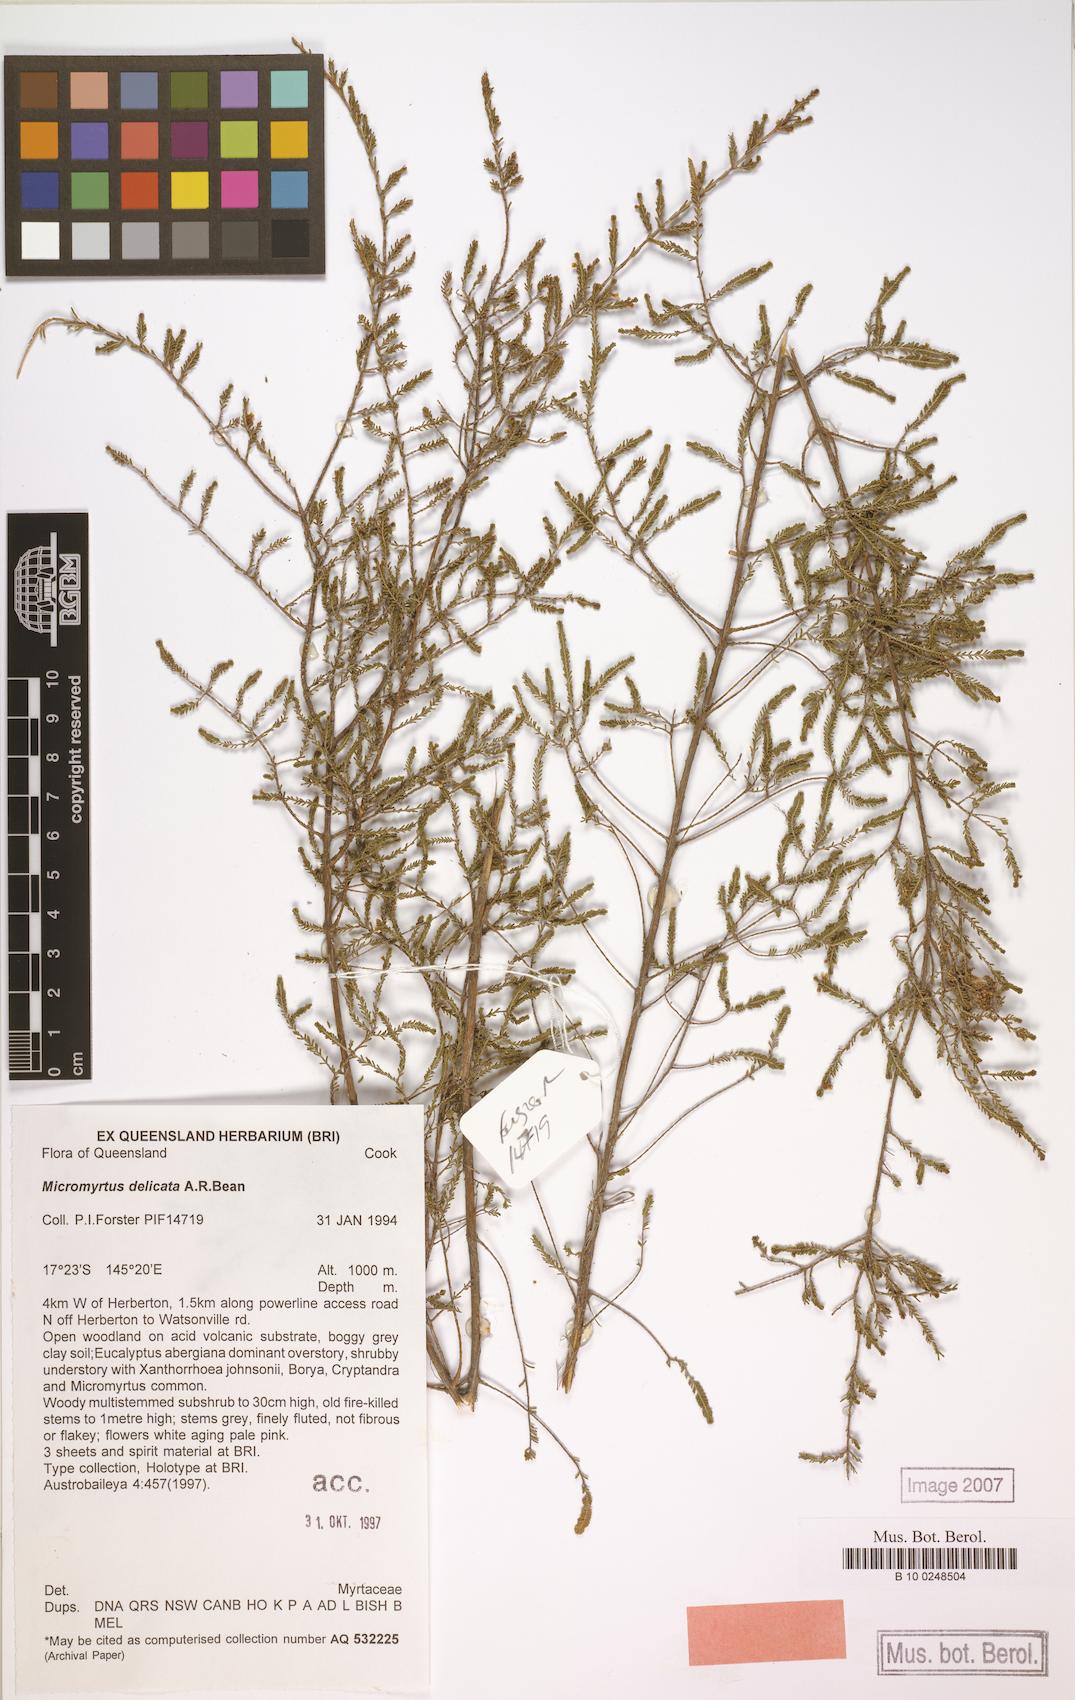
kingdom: Plantae
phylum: Tracheophyta
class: Magnoliopsida
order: Myrtales
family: Myrtaceae
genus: Micromyrtus
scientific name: Micromyrtus delicata
